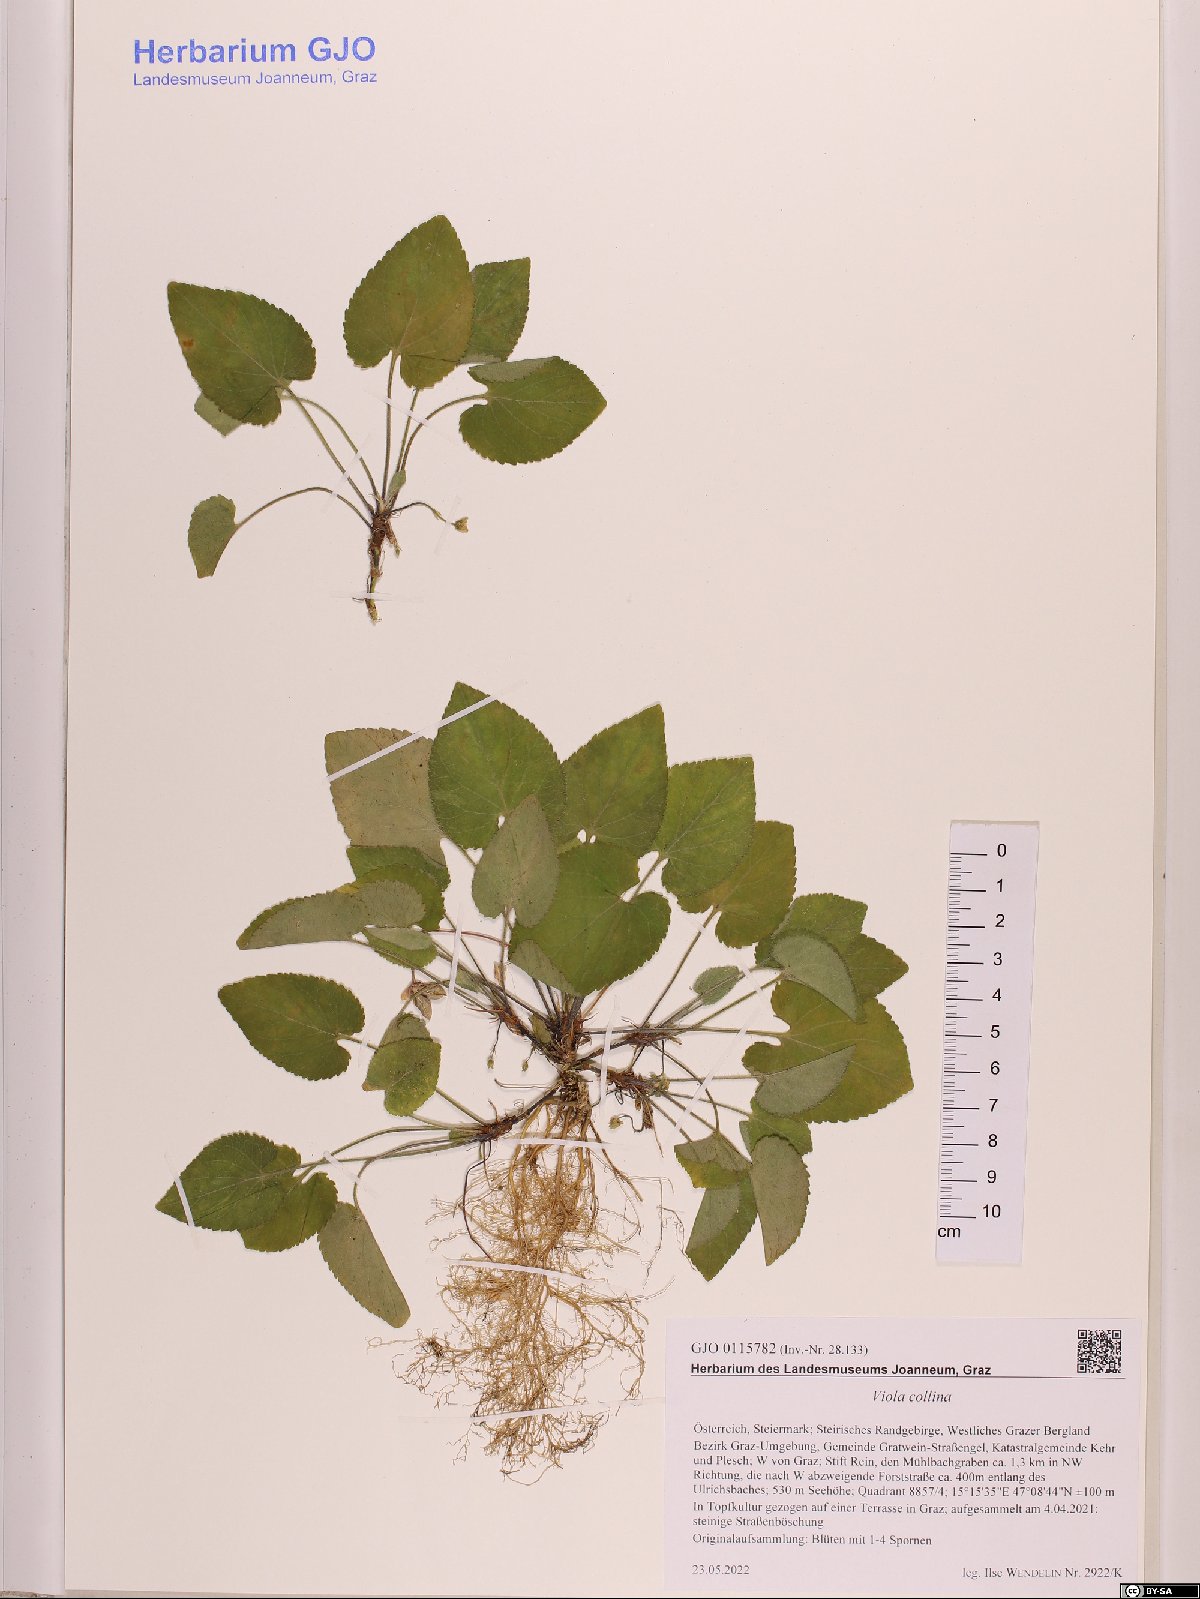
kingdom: Plantae
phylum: Tracheophyta
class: Magnoliopsida
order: Malpighiales
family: Violaceae
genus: Viola
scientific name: Viola collina
